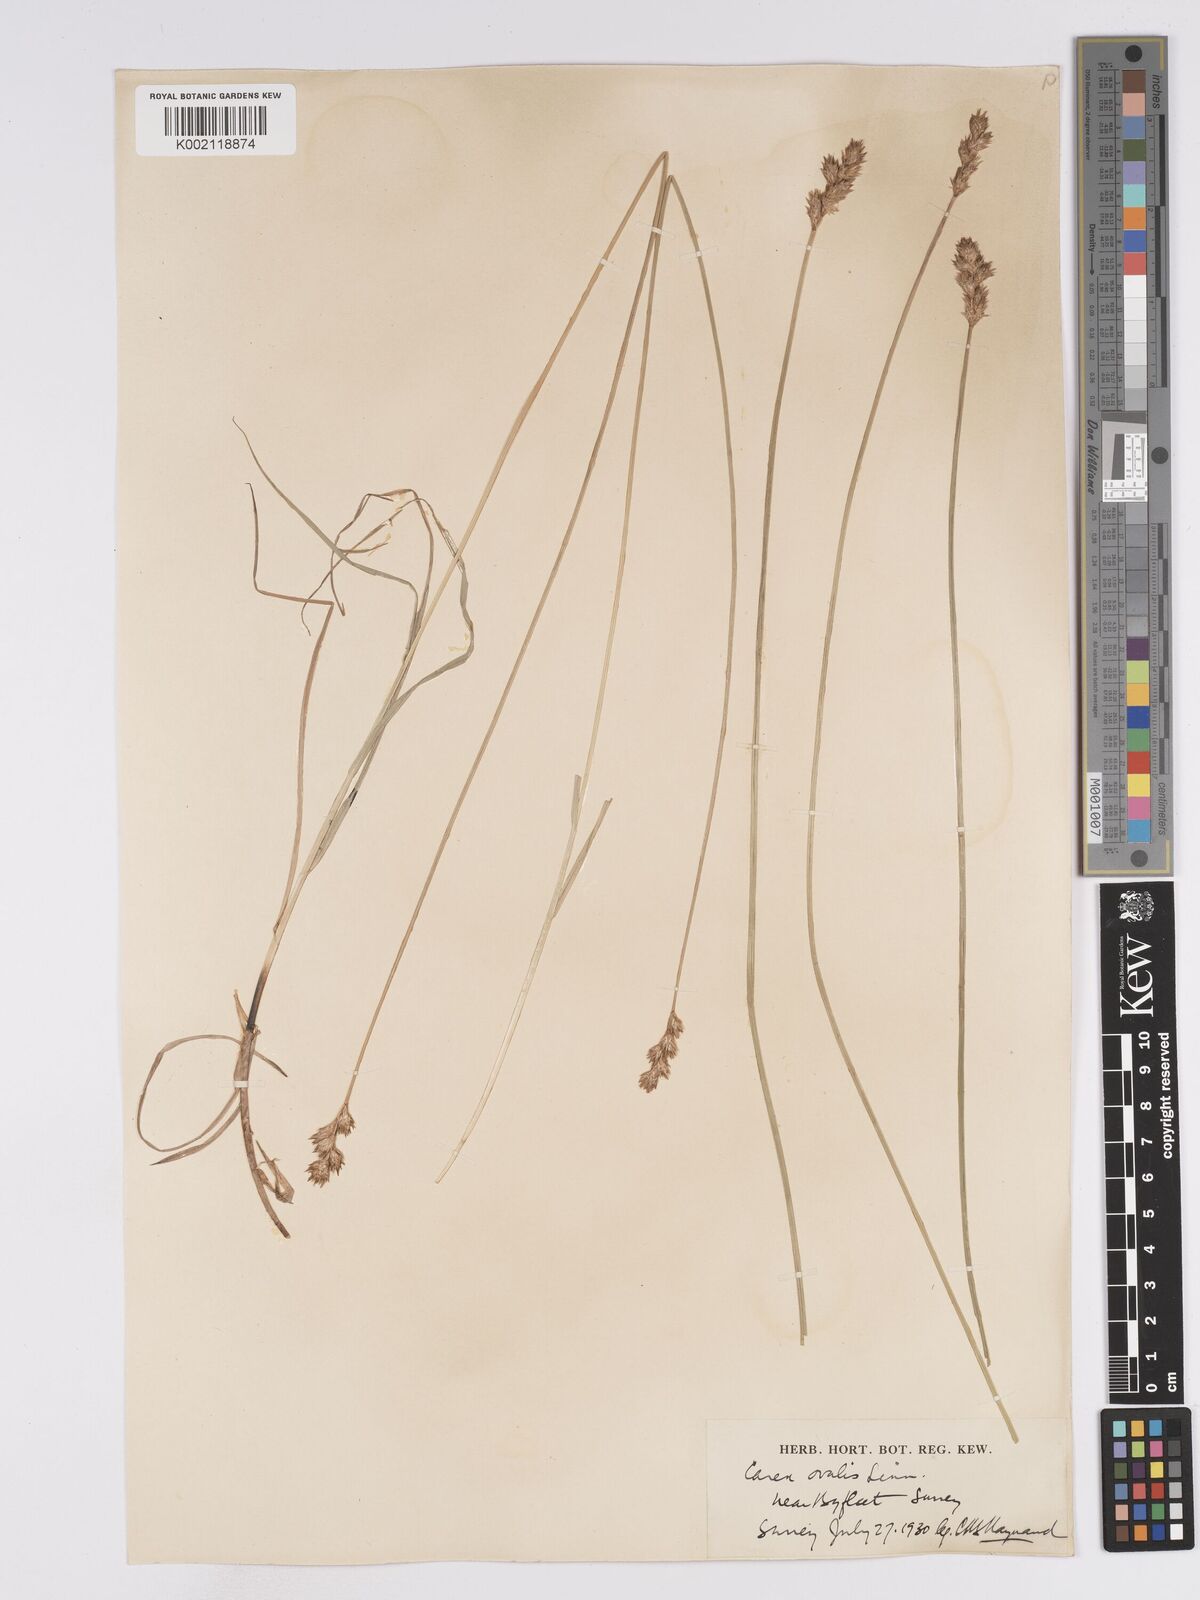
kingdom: Plantae
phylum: Tracheophyta
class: Liliopsida
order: Poales
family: Cyperaceae
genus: Carex
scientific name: Carex leporina
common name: Oval sedge
